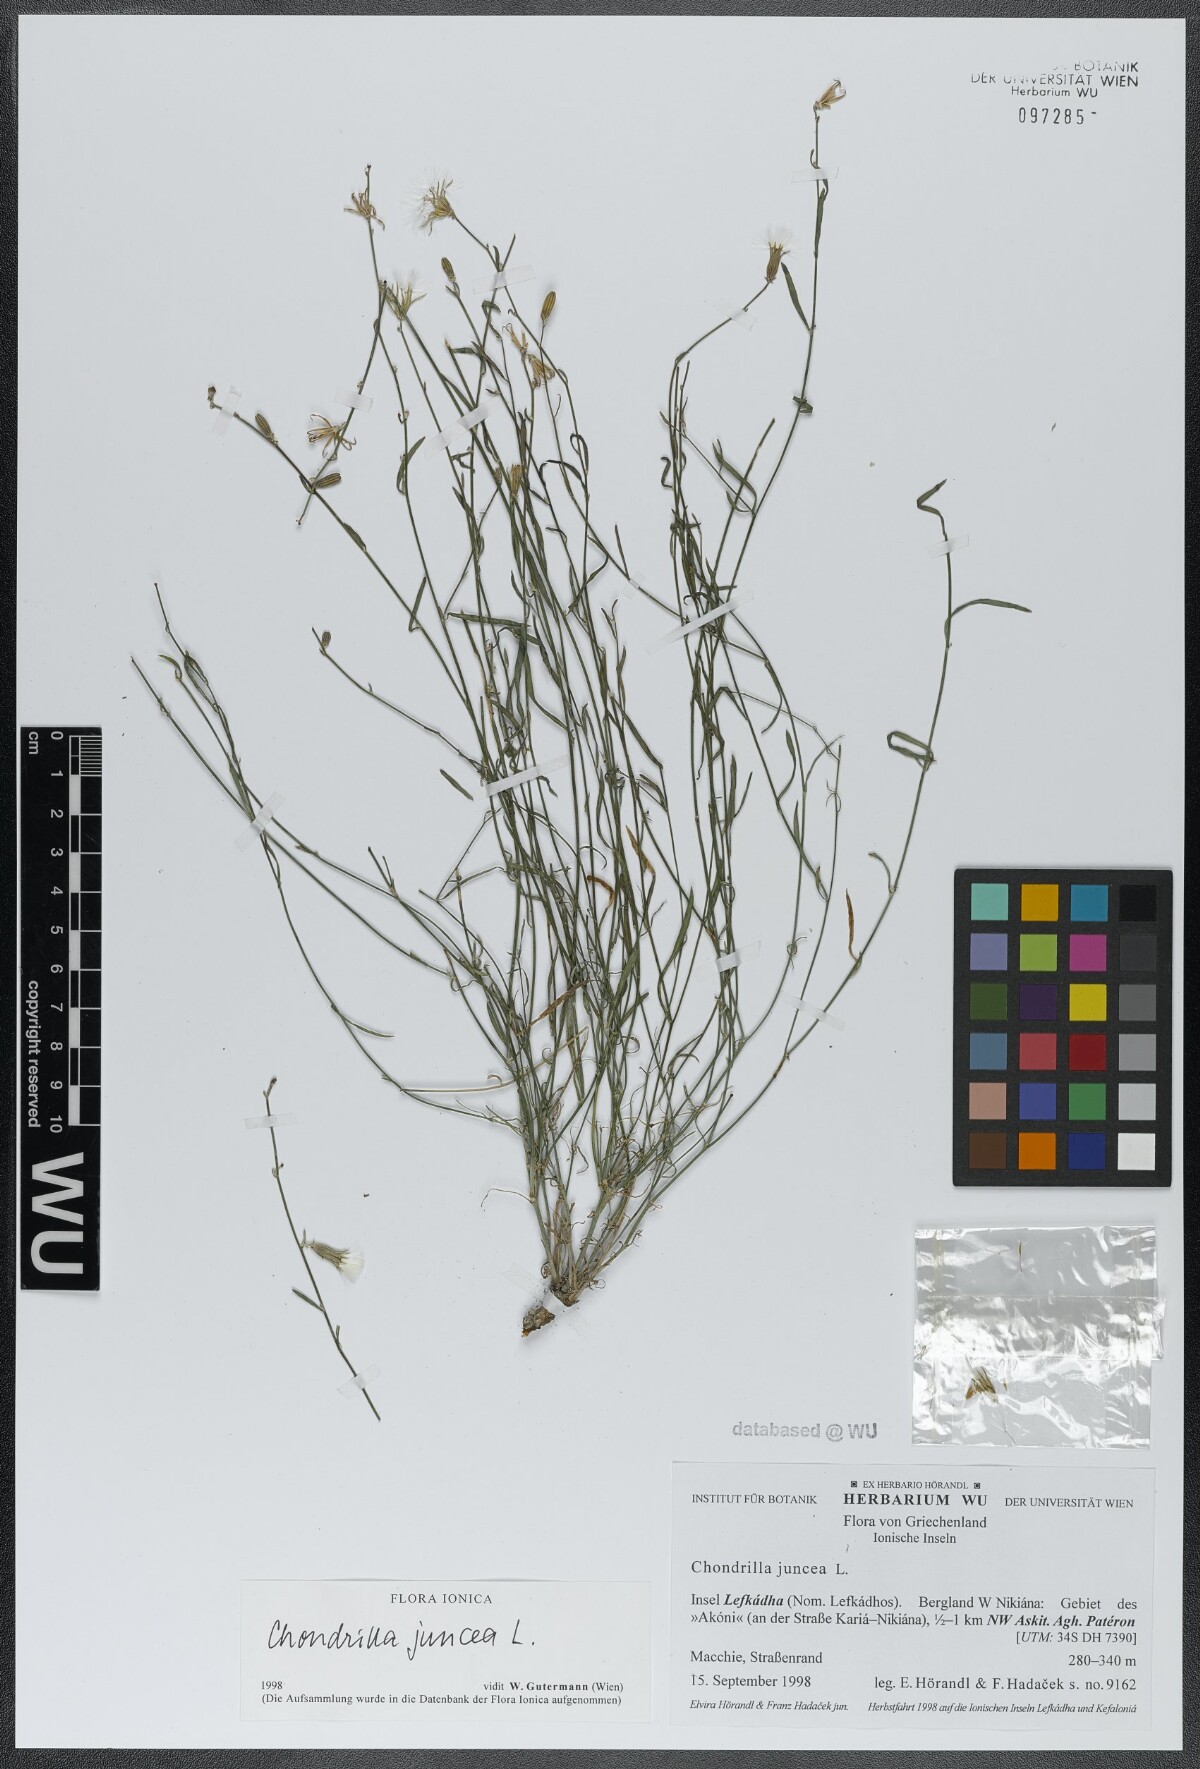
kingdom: Plantae
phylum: Tracheophyta
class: Magnoliopsida
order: Asterales
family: Asteraceae
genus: Chondrilla
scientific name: Chondrilla juncea
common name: Skeleton weed
